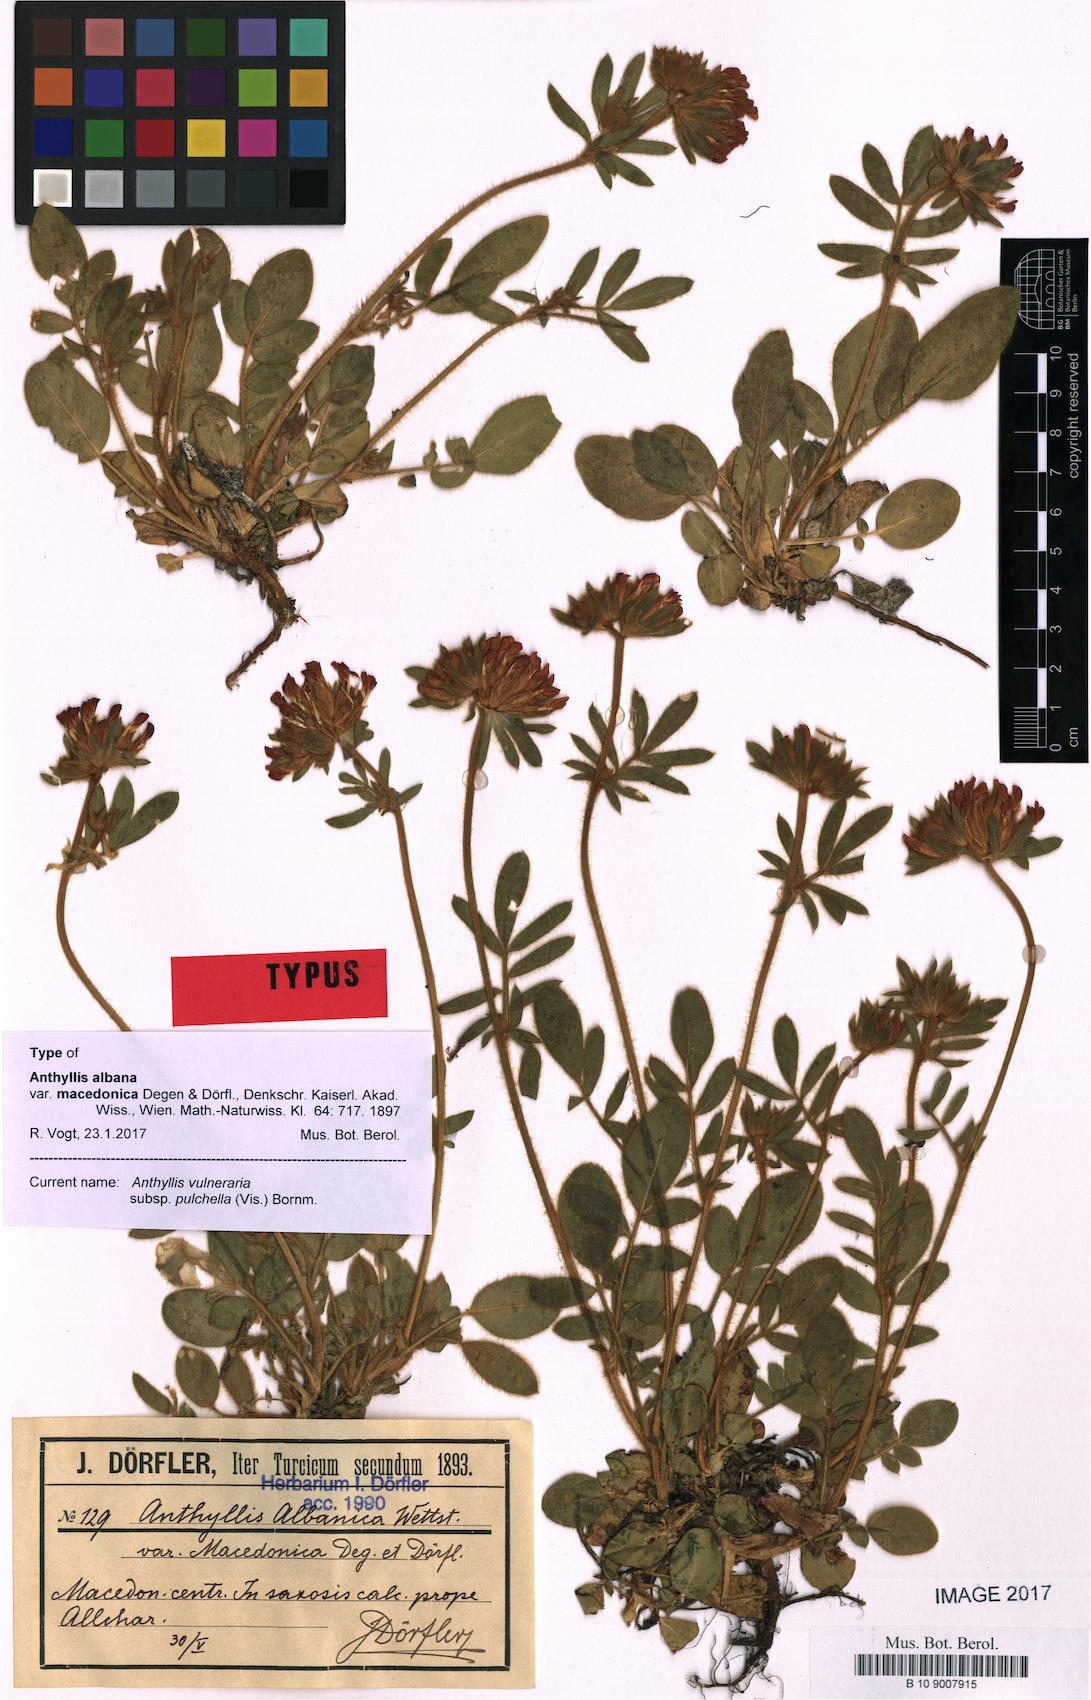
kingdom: Plantae
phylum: Tracheophyta
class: Magnoliopsida
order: Fabales
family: Fabaceae
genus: Anthyllis
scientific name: Anthyllis vulneraria
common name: Kidney vetch
